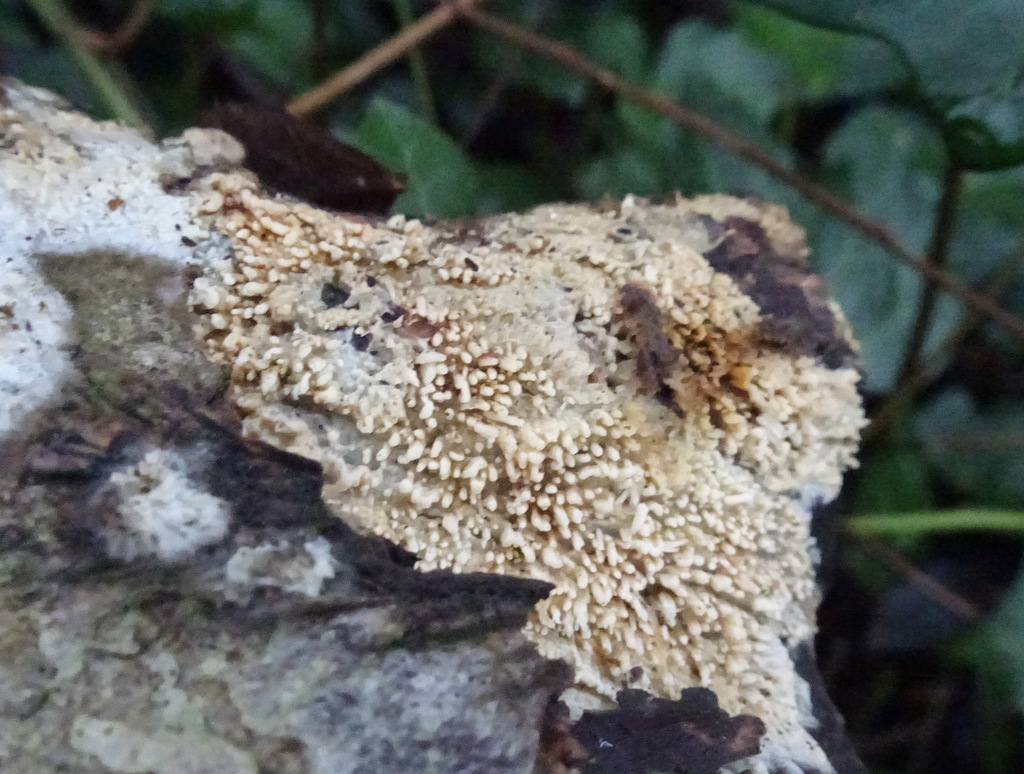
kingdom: Fungi
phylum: Basidiomycota
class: Agaricomycetes
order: Hymenochaetales
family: Schizoporaceae
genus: Xylodon
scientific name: Xylodon radula
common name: grovtandet kalkskind
